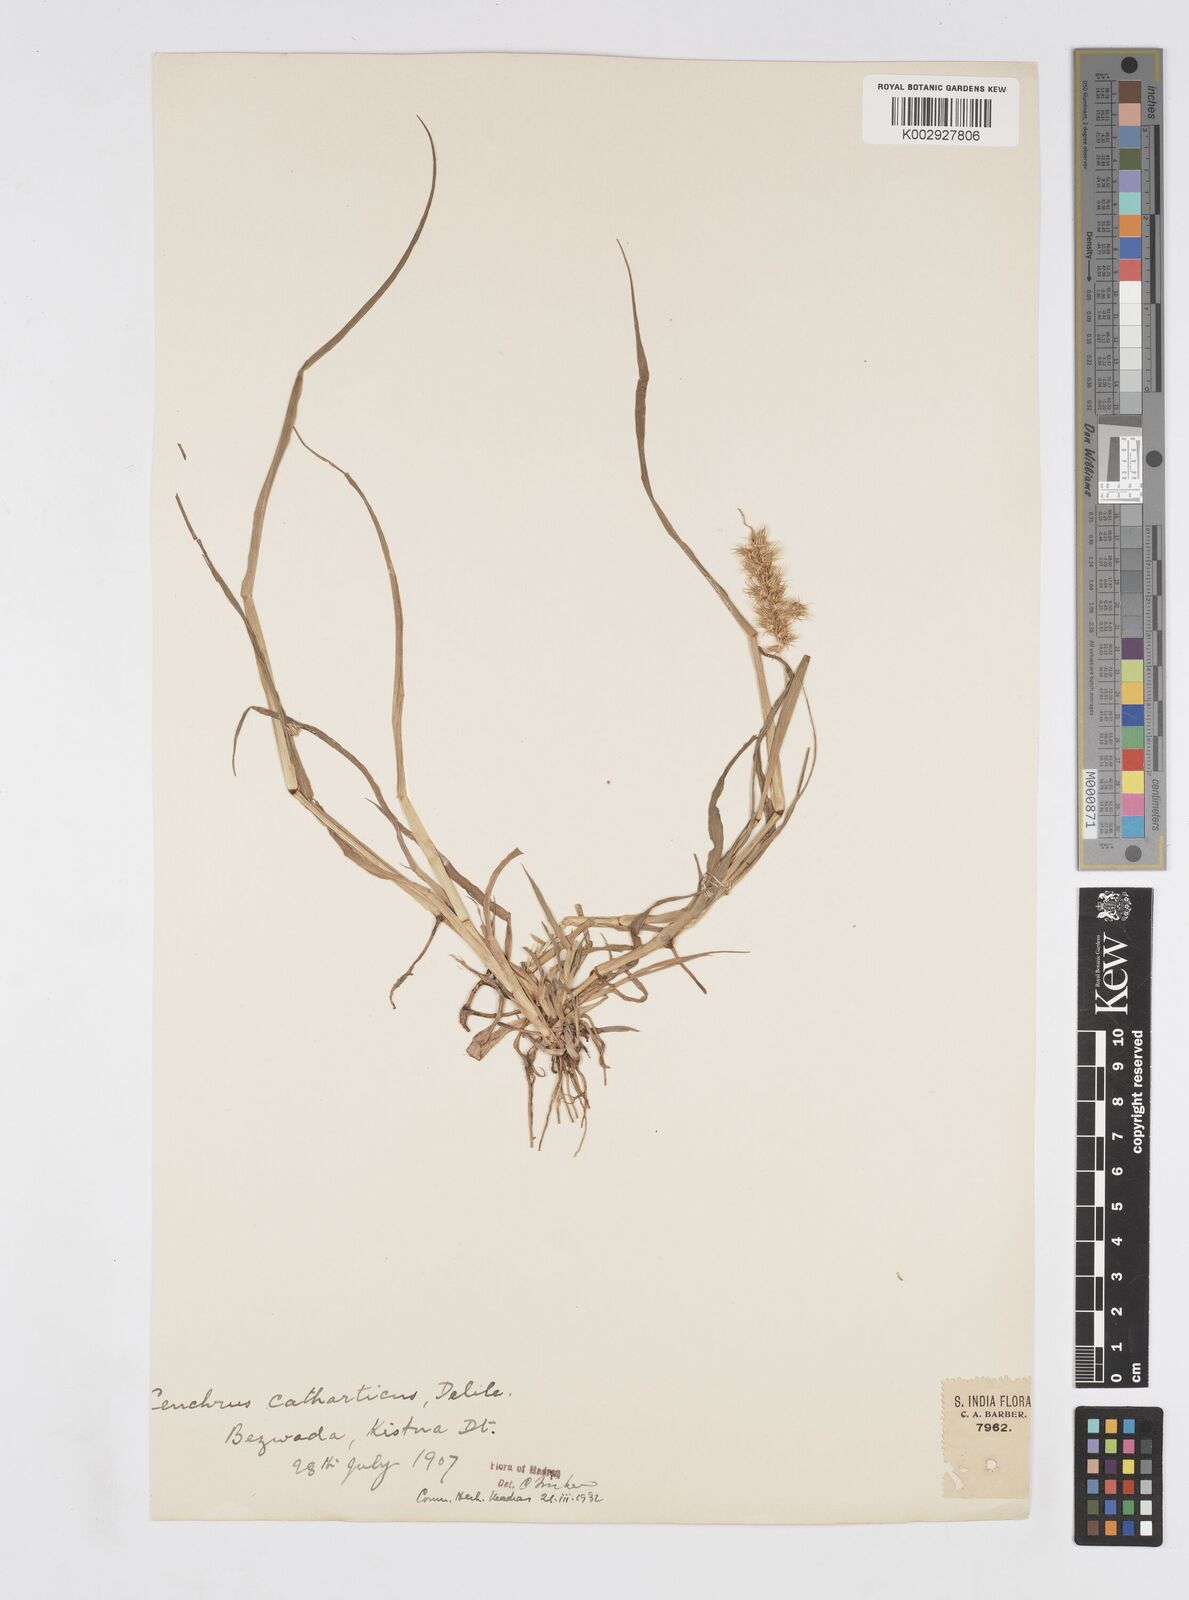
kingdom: Plantae
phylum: Tracheophyta
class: Liliopsida
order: Poales
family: Poaceae
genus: Cenchrus
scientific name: Cenchrus biflorus
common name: Indian sandbur
